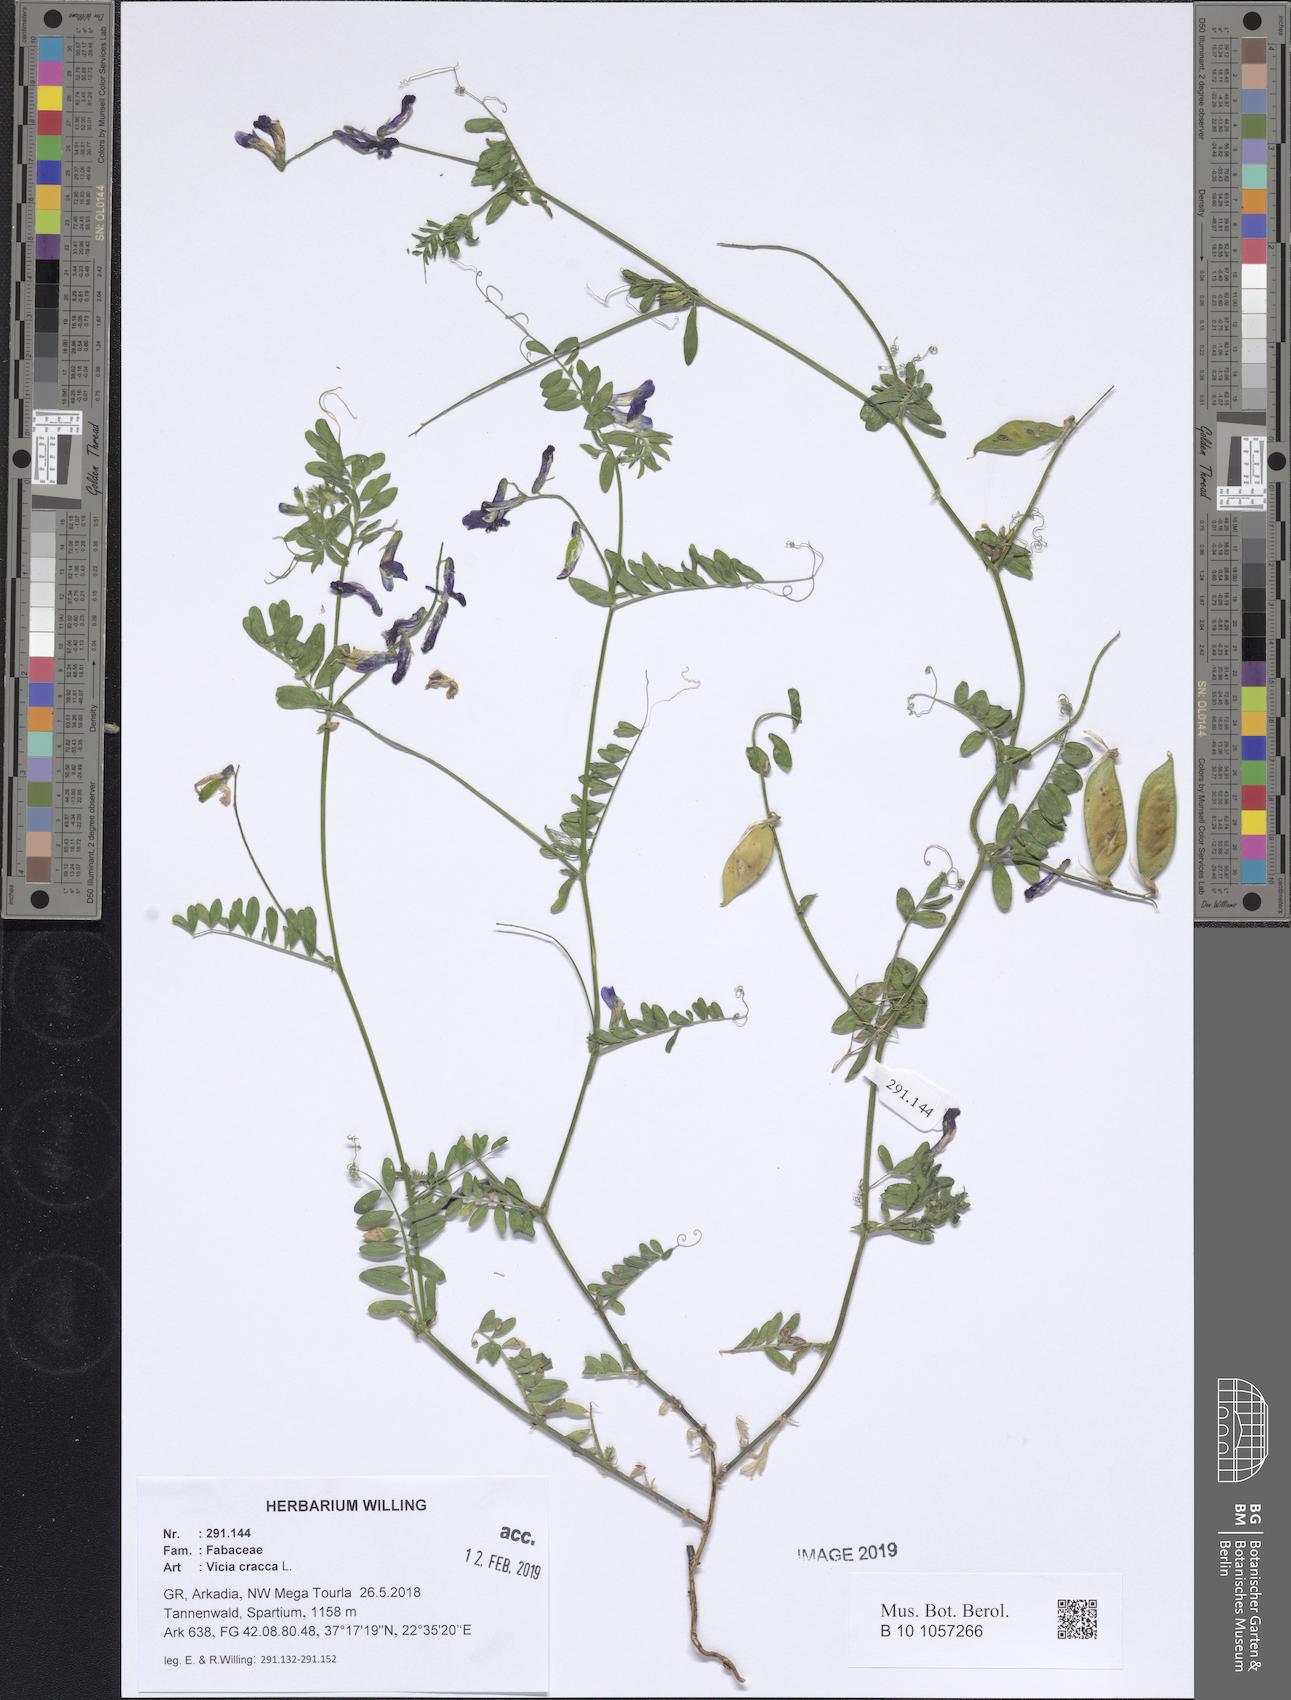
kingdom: Plantae
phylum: Tracheophyta
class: Magnoliopsida
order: Fabales
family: Fabaceae
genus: Vicia
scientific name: Vicia cracca
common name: Bird vetch
